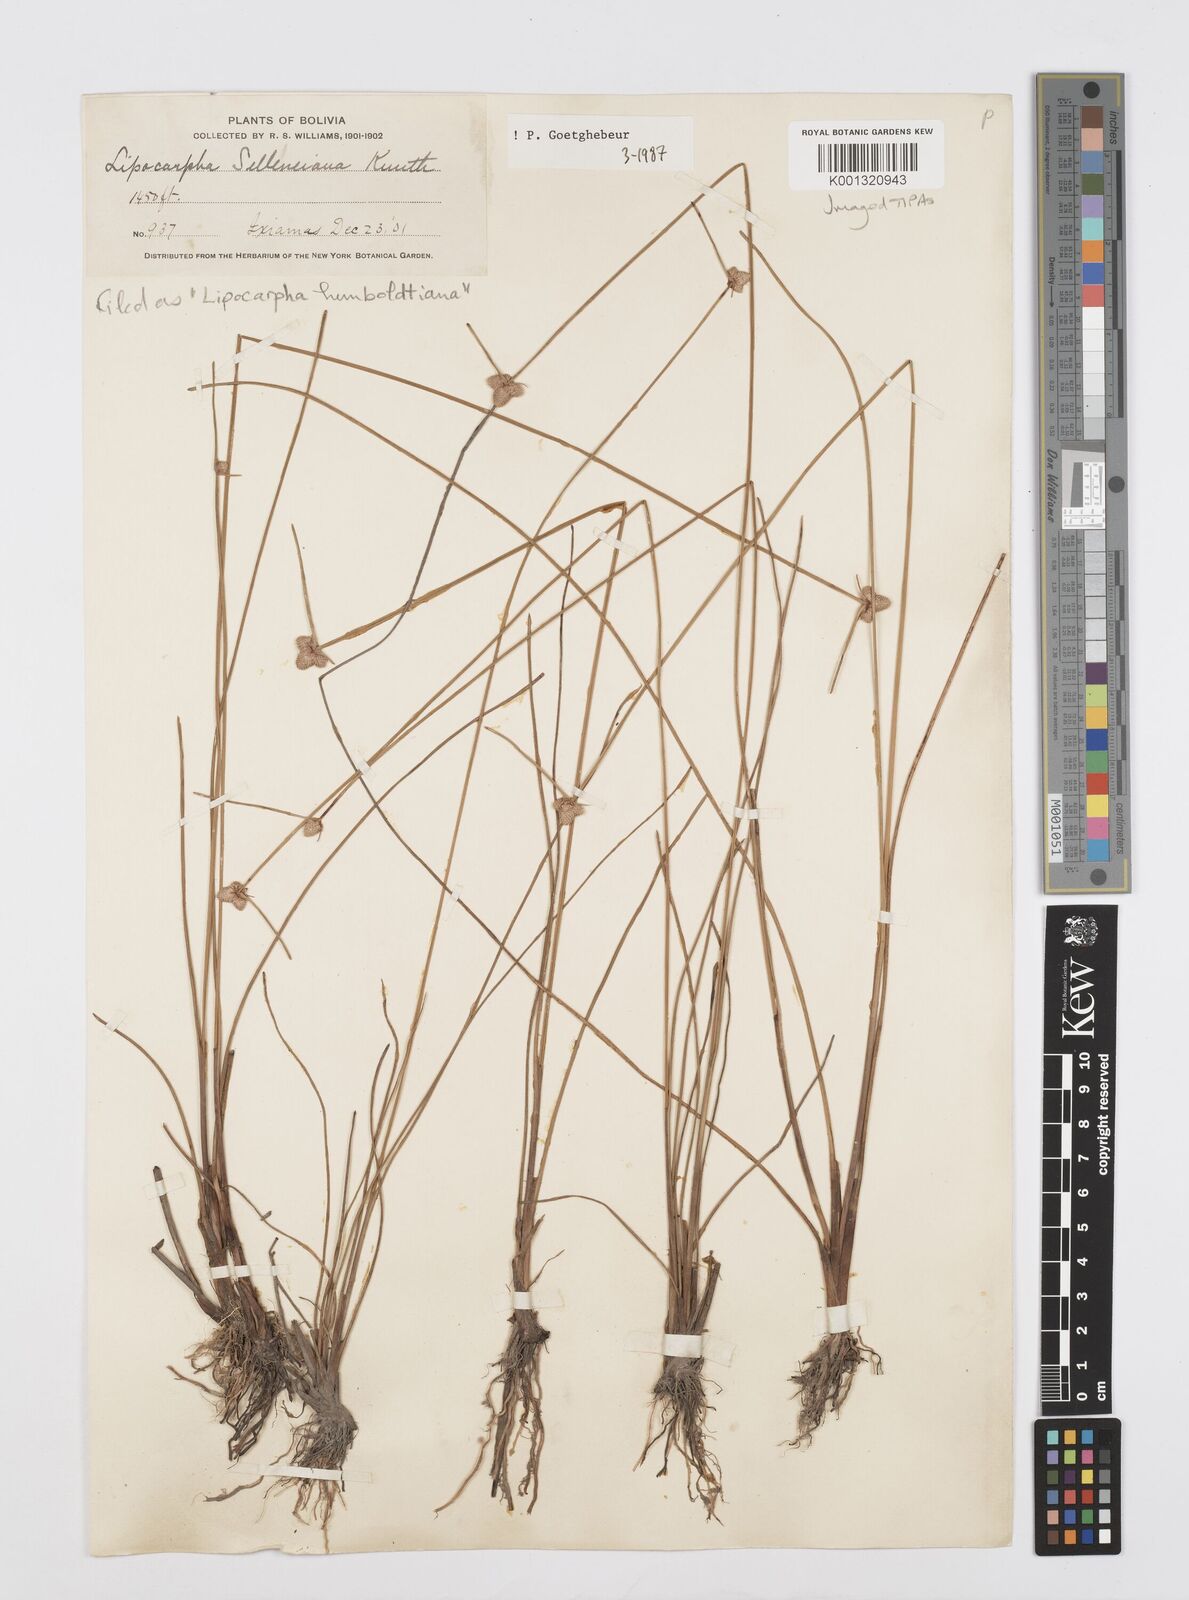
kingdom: Plantae
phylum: Tracheophyta
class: Liliopsida
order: Poales
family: Cyperaceae
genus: Cyperus
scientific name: Cyperus lanceolatus
